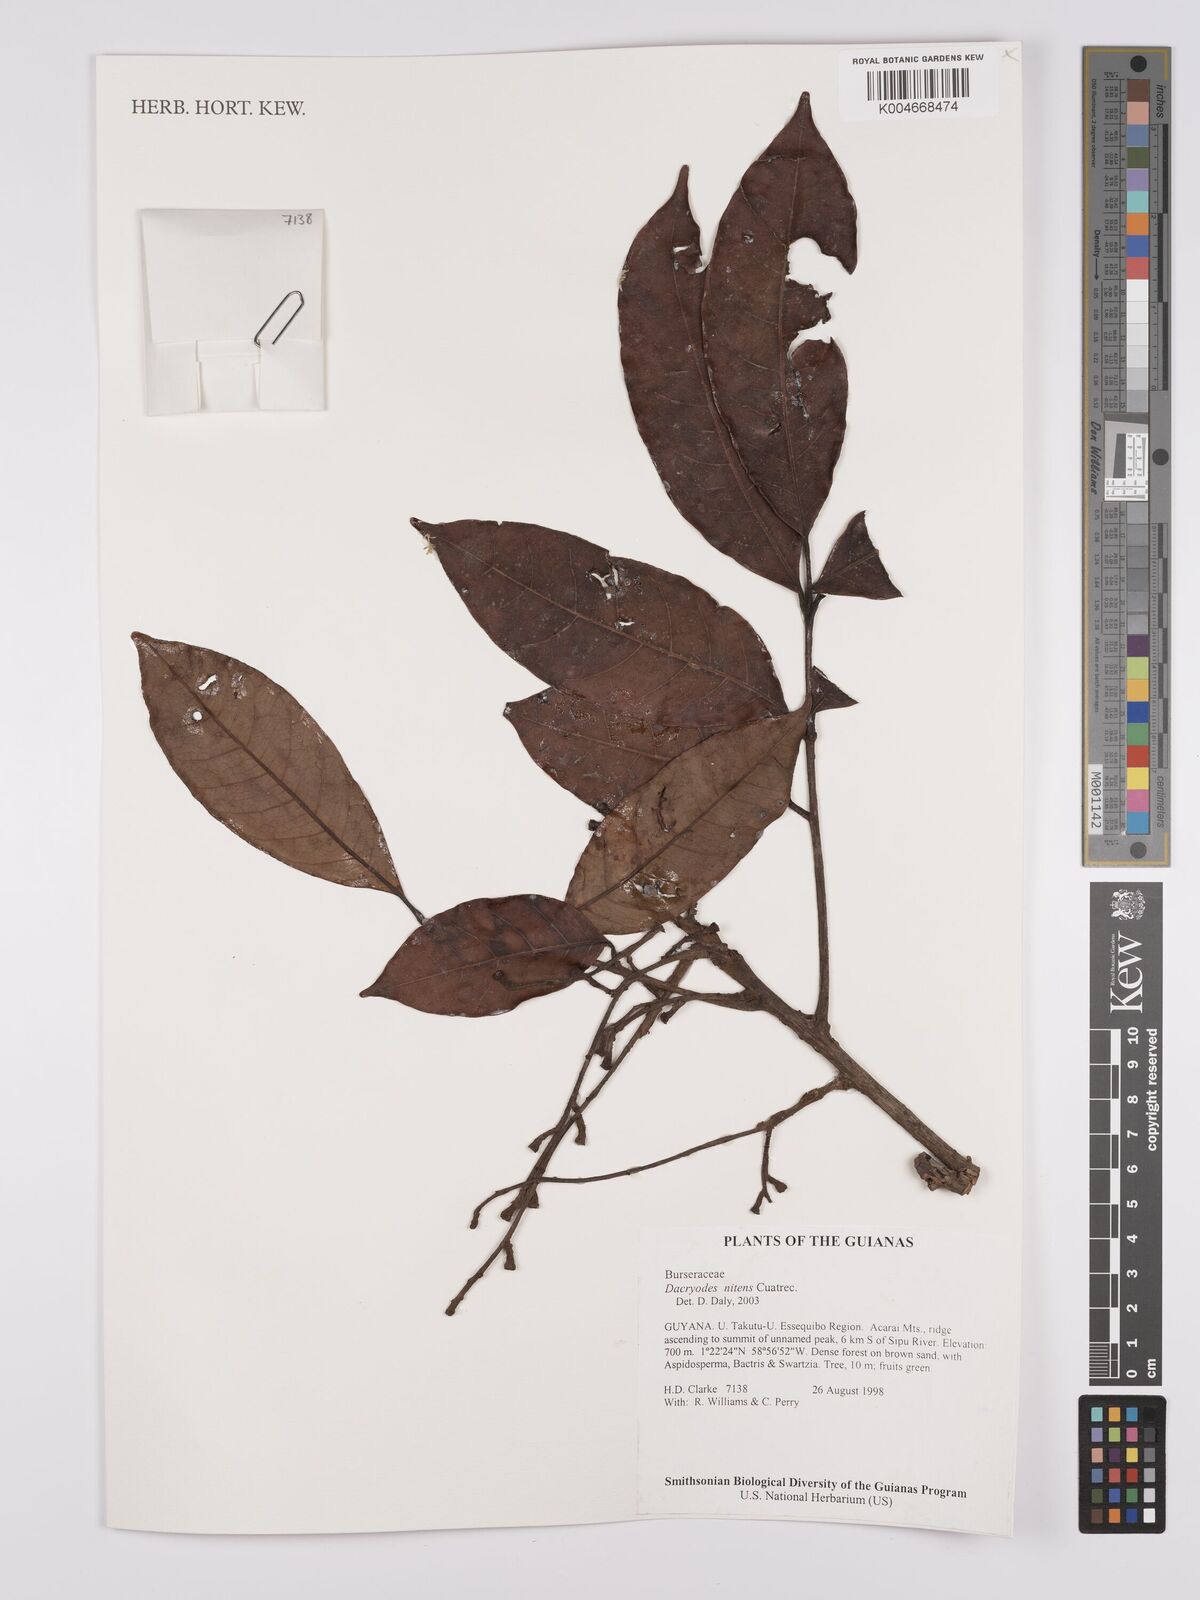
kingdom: Plantae
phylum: Tracheophyta
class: Magnoliopsida
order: Sapindales
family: Burseraceae
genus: Dacryodes
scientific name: Dacryodes nitens
